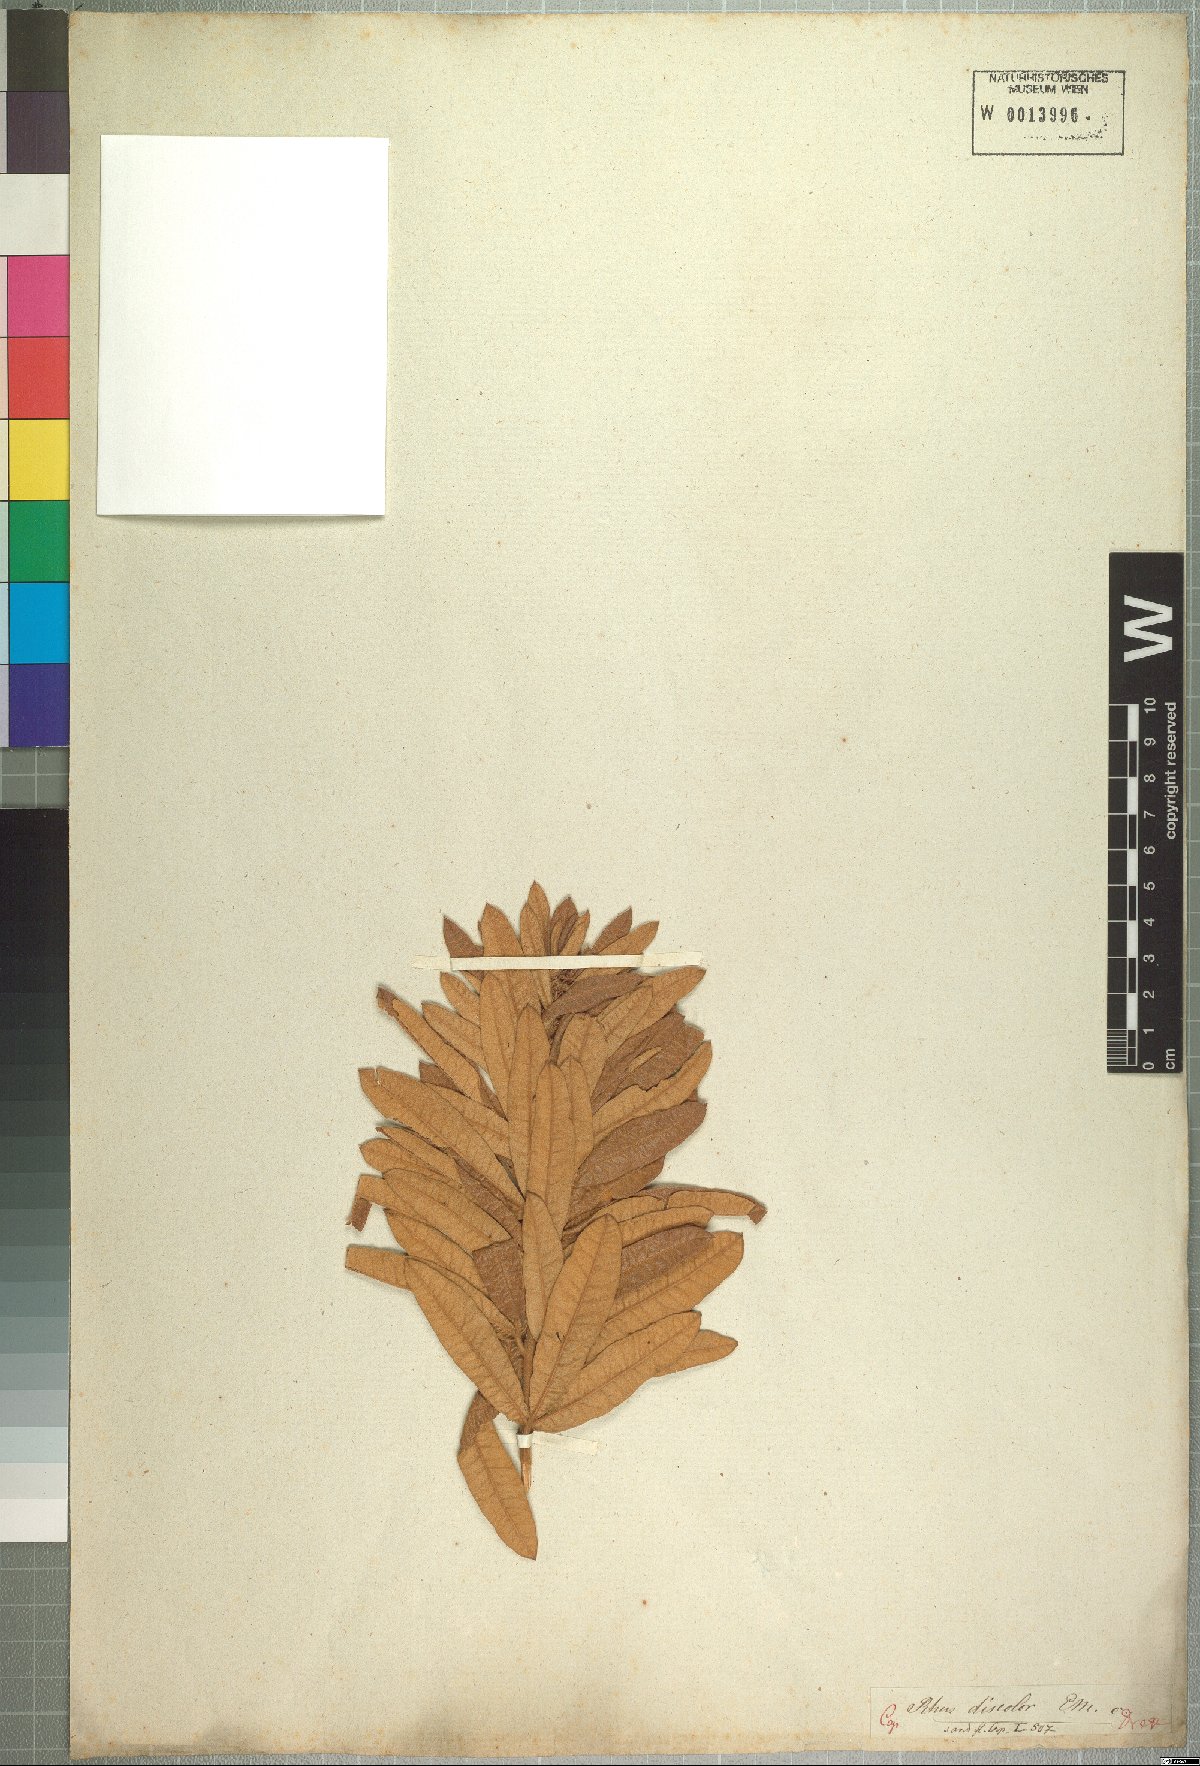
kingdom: Plantae
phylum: Tracheophyta
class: Magnoliopsida
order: Sapindales
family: Anacardiaceae
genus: Searsia
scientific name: Searsia discolor
